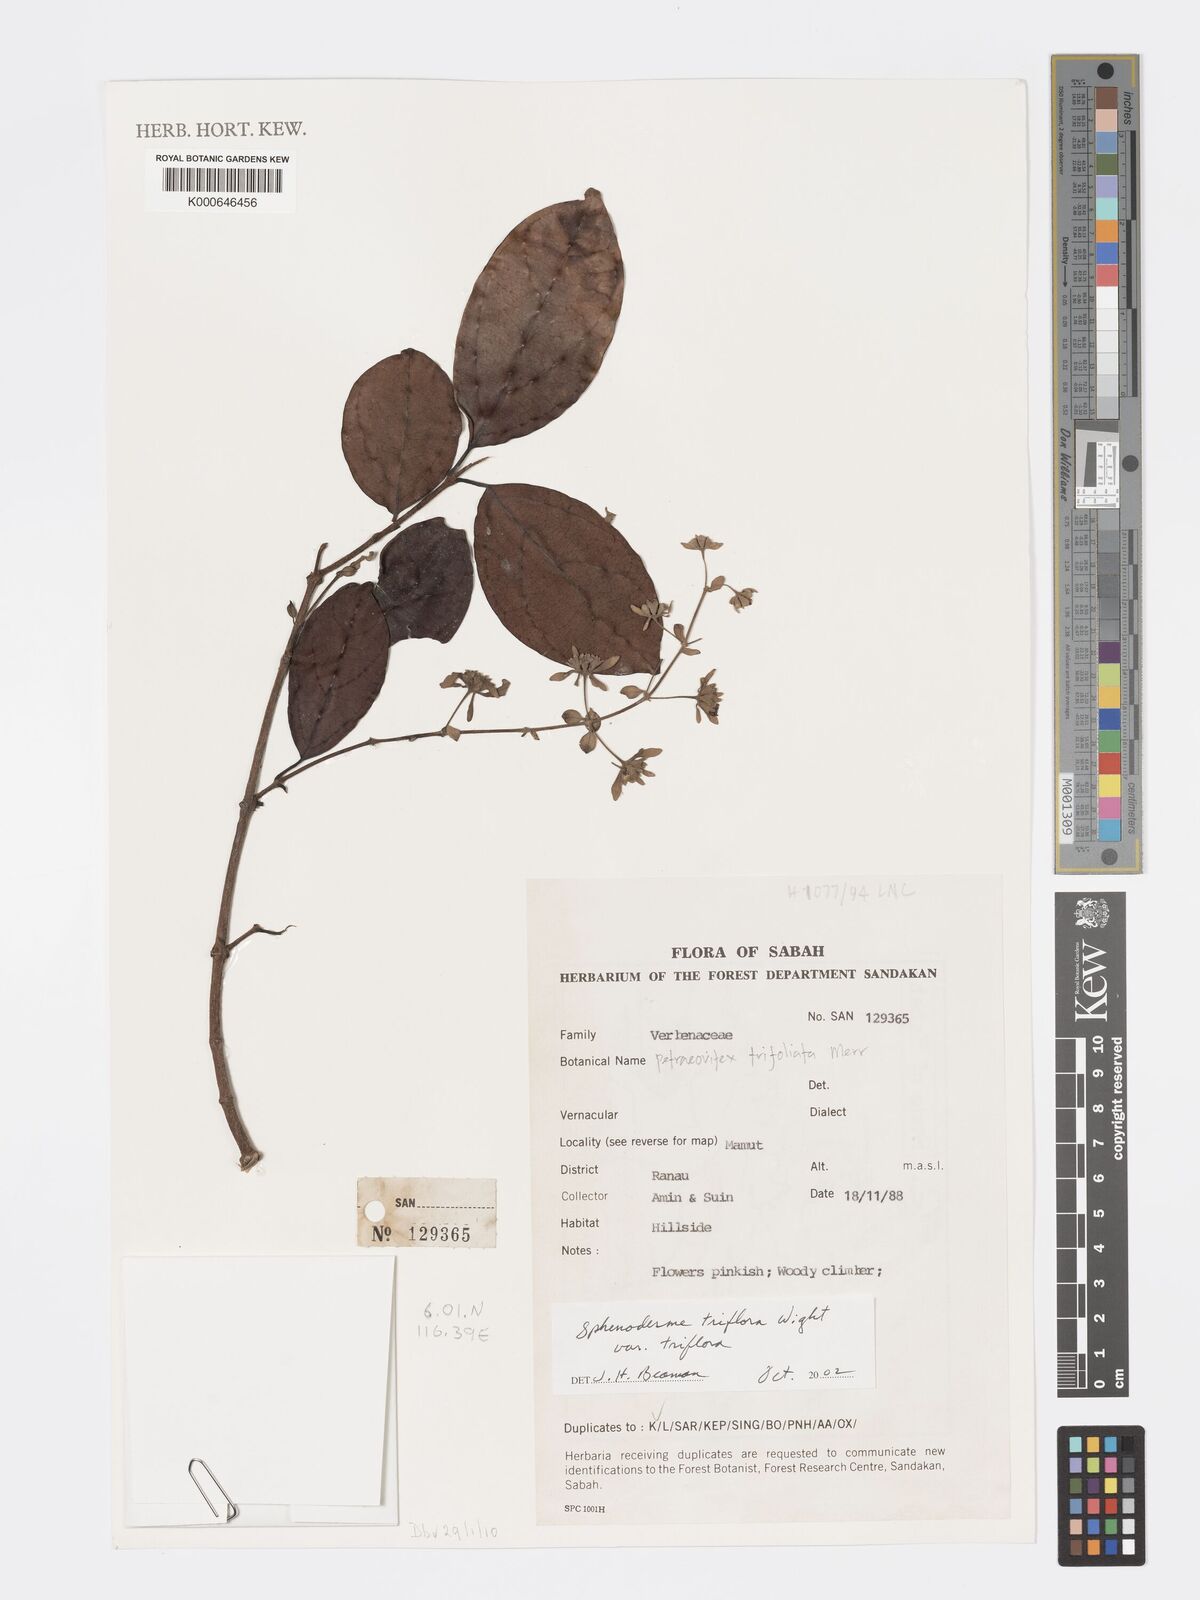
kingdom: Plantae
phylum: Tracheophyta
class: Magnoliopsida
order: Lamiales
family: Lamiaceae
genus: Sphenodesme
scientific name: Sphenodesme
